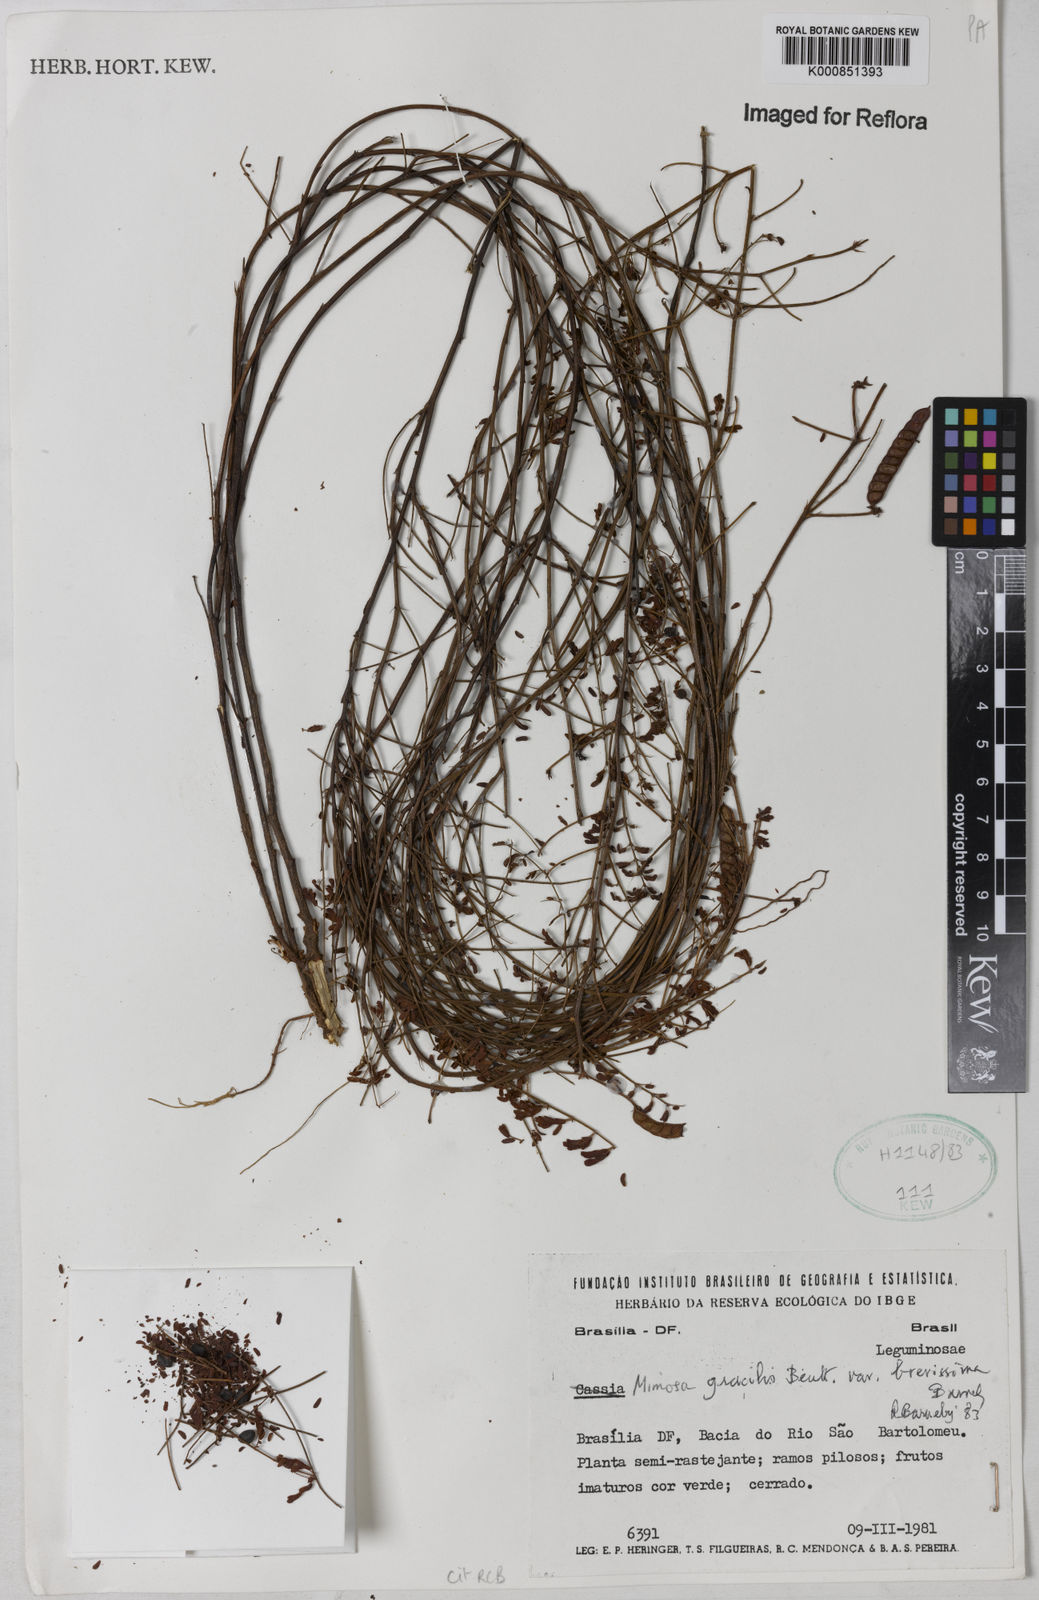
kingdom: Plantae
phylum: Tracheophyta
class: Magnoliopsida
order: Fabales
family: Fabaceae
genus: Mimosa
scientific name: Mimosa gracilis
